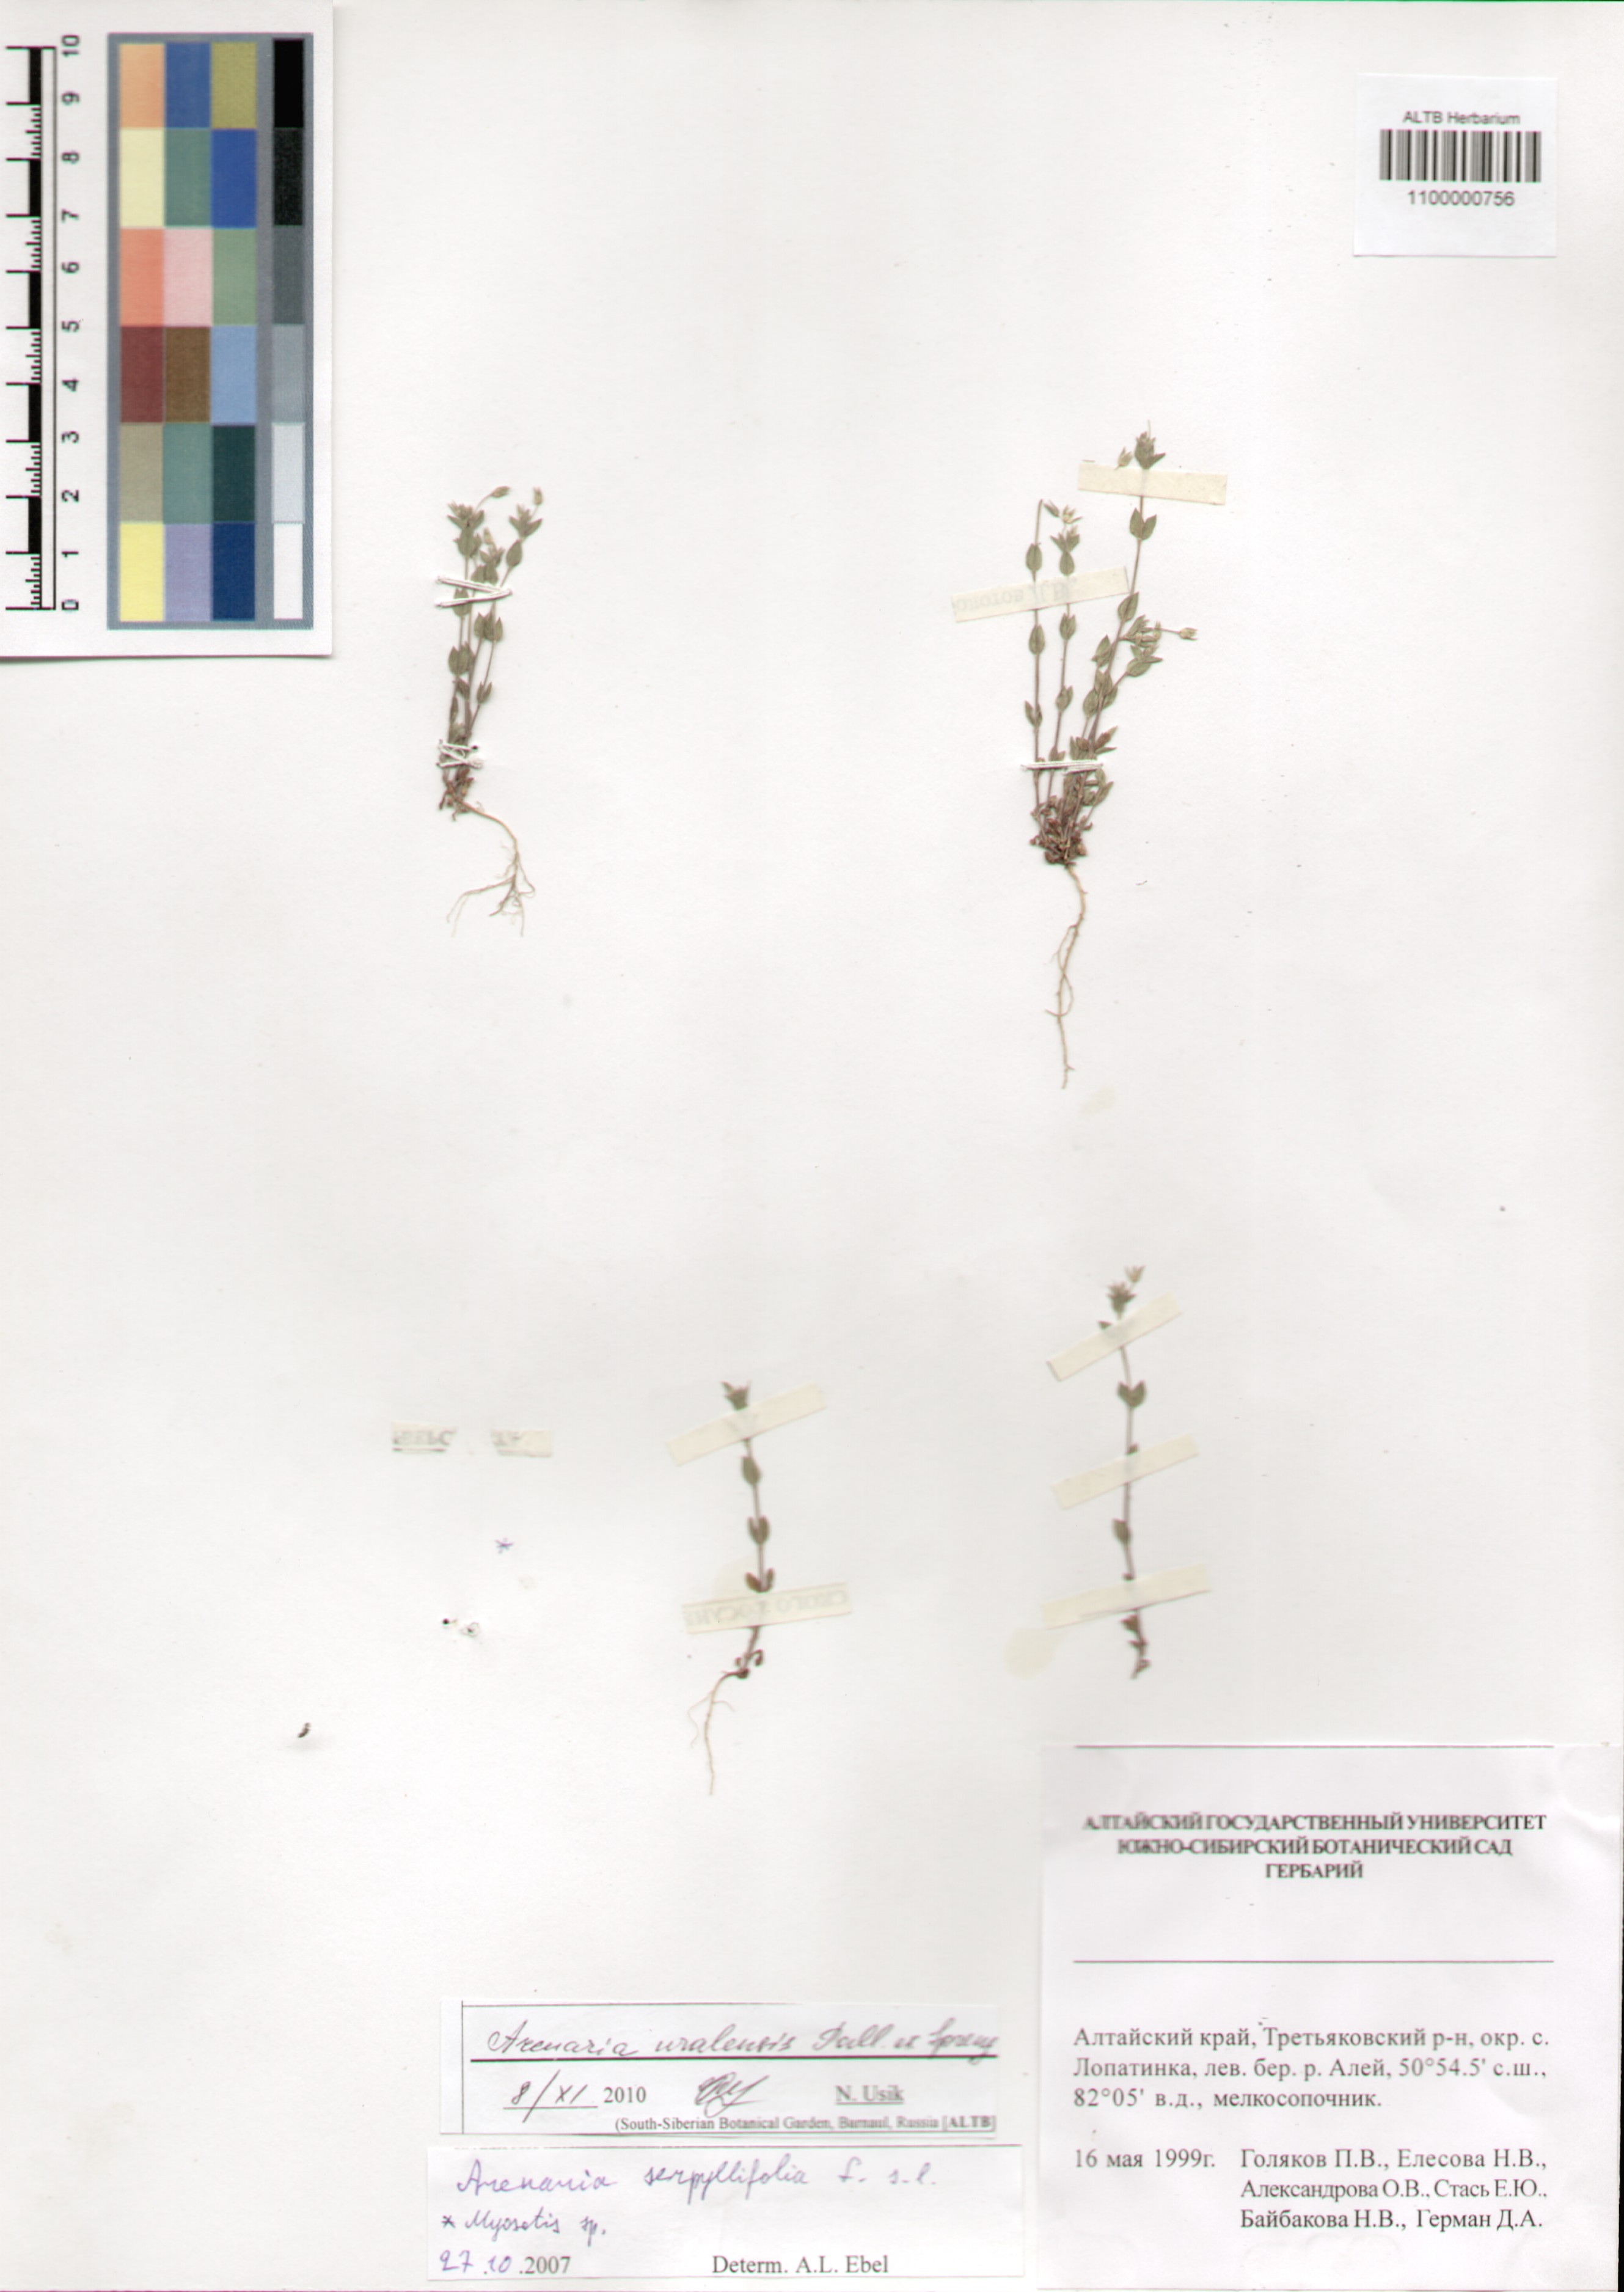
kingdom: Plantae
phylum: Tracheophyta
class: Magnoliopsida
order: Caryophyllales
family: Caryophyllaceae
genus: Arenaria
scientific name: Arenaria serpyllifolia
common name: Thyme-leaved sandwort
